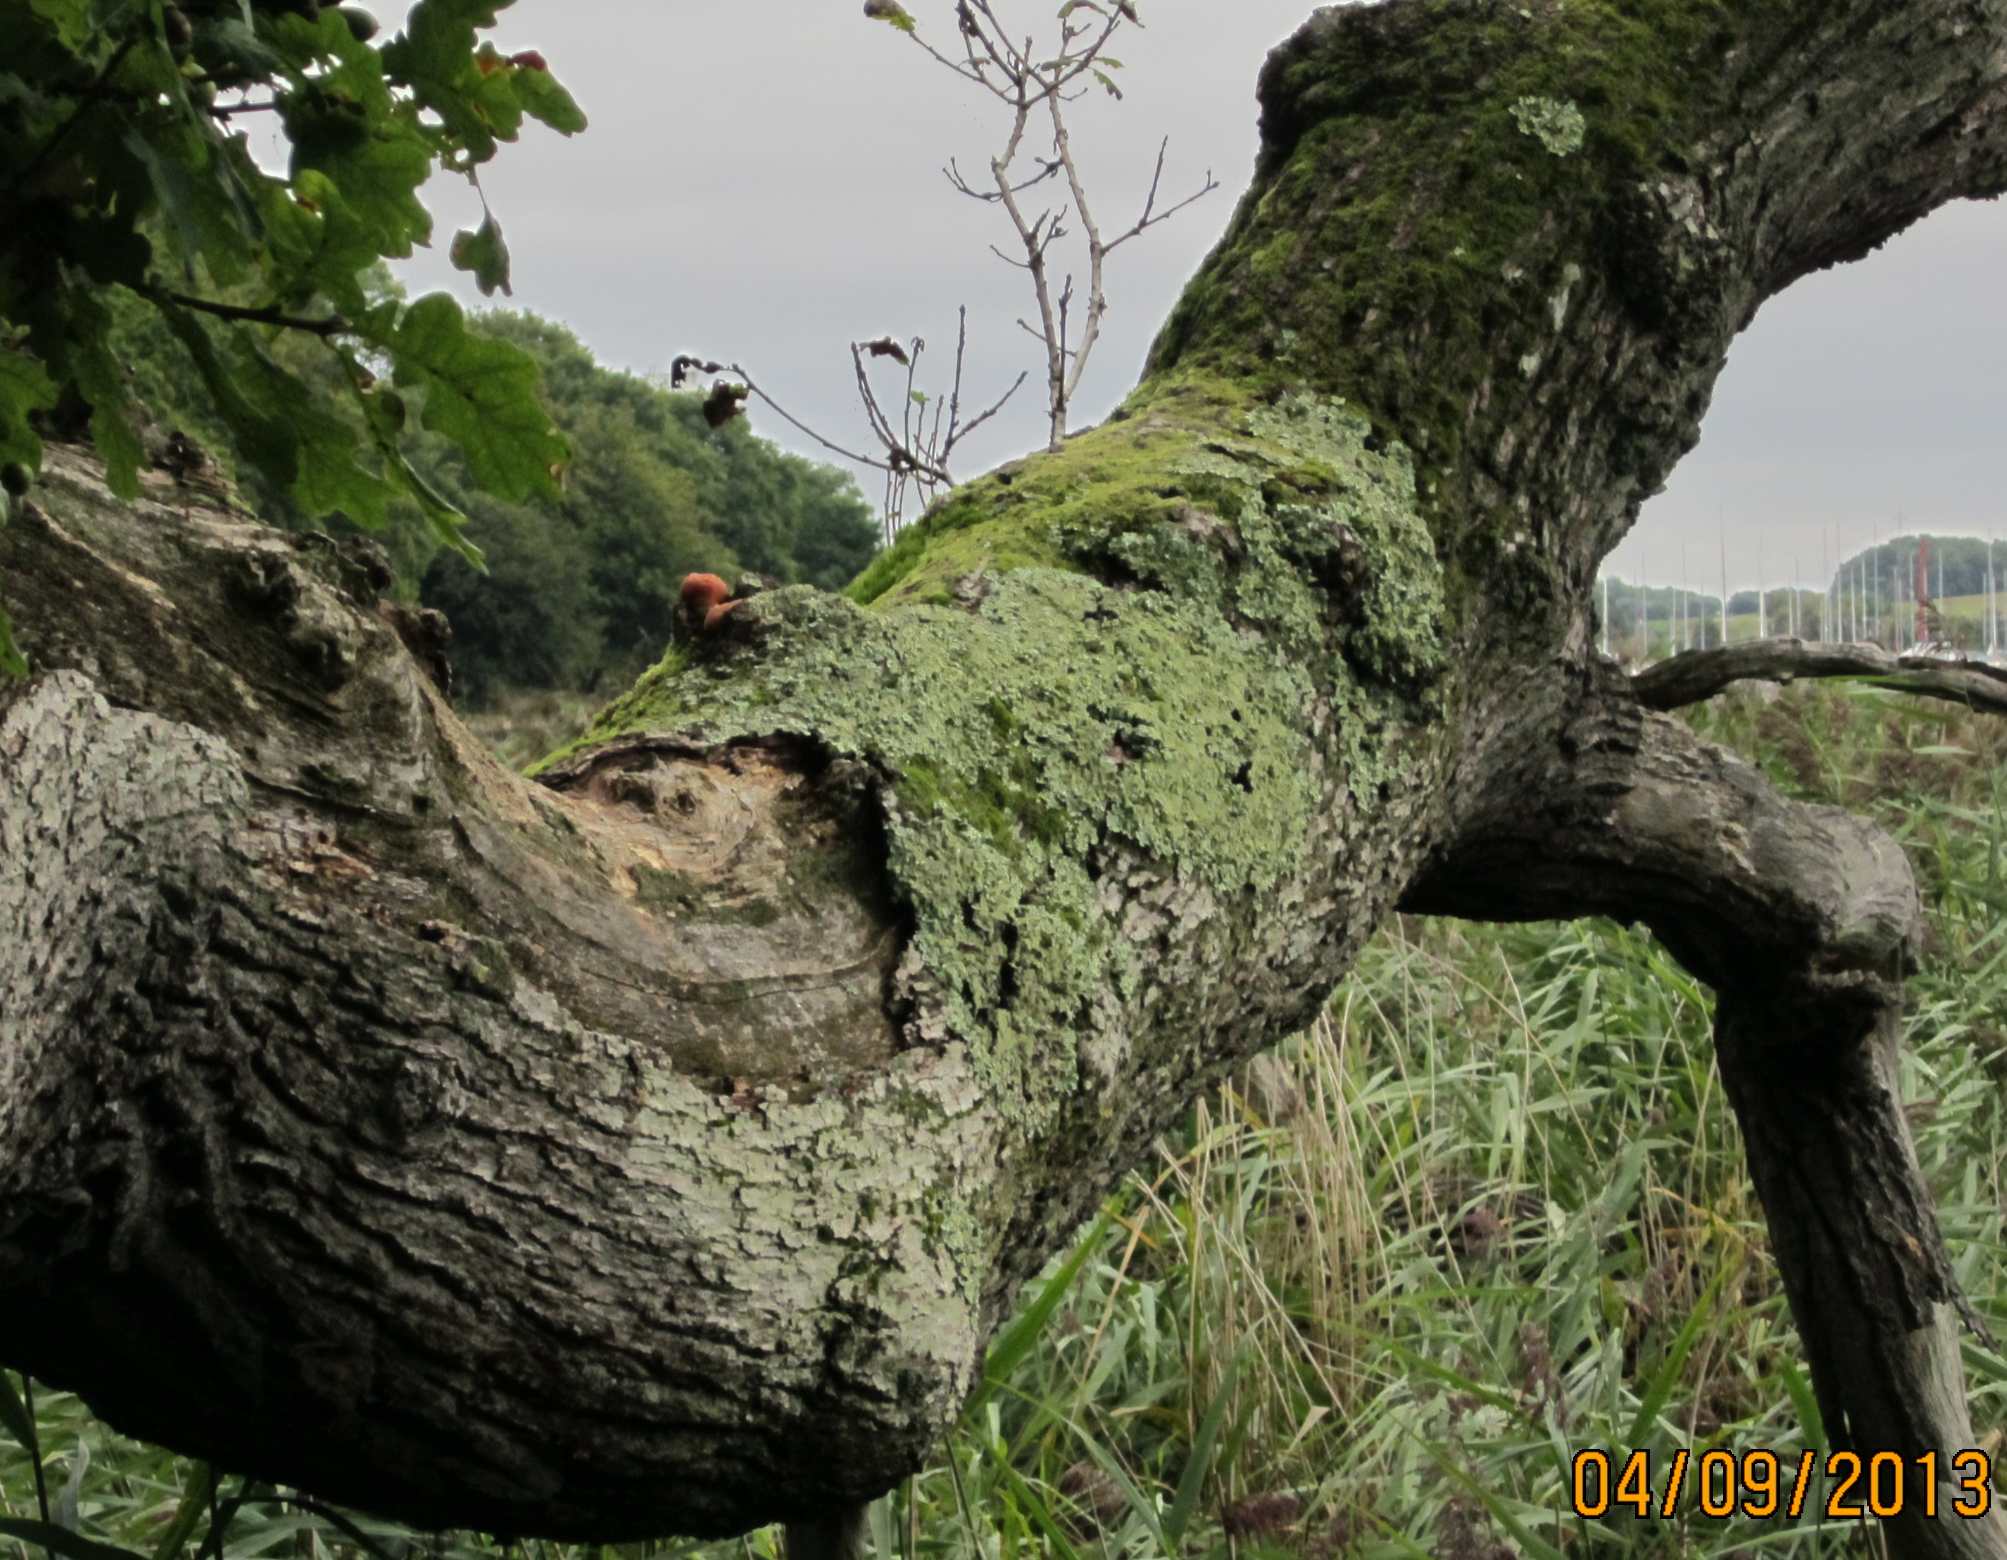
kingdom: Fungi
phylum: Basidiomycota
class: Agaricomycetes
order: Agaricales
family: Fistulinaceae
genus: Fistulina
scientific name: Fistulina hepatica
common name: oksetunge
